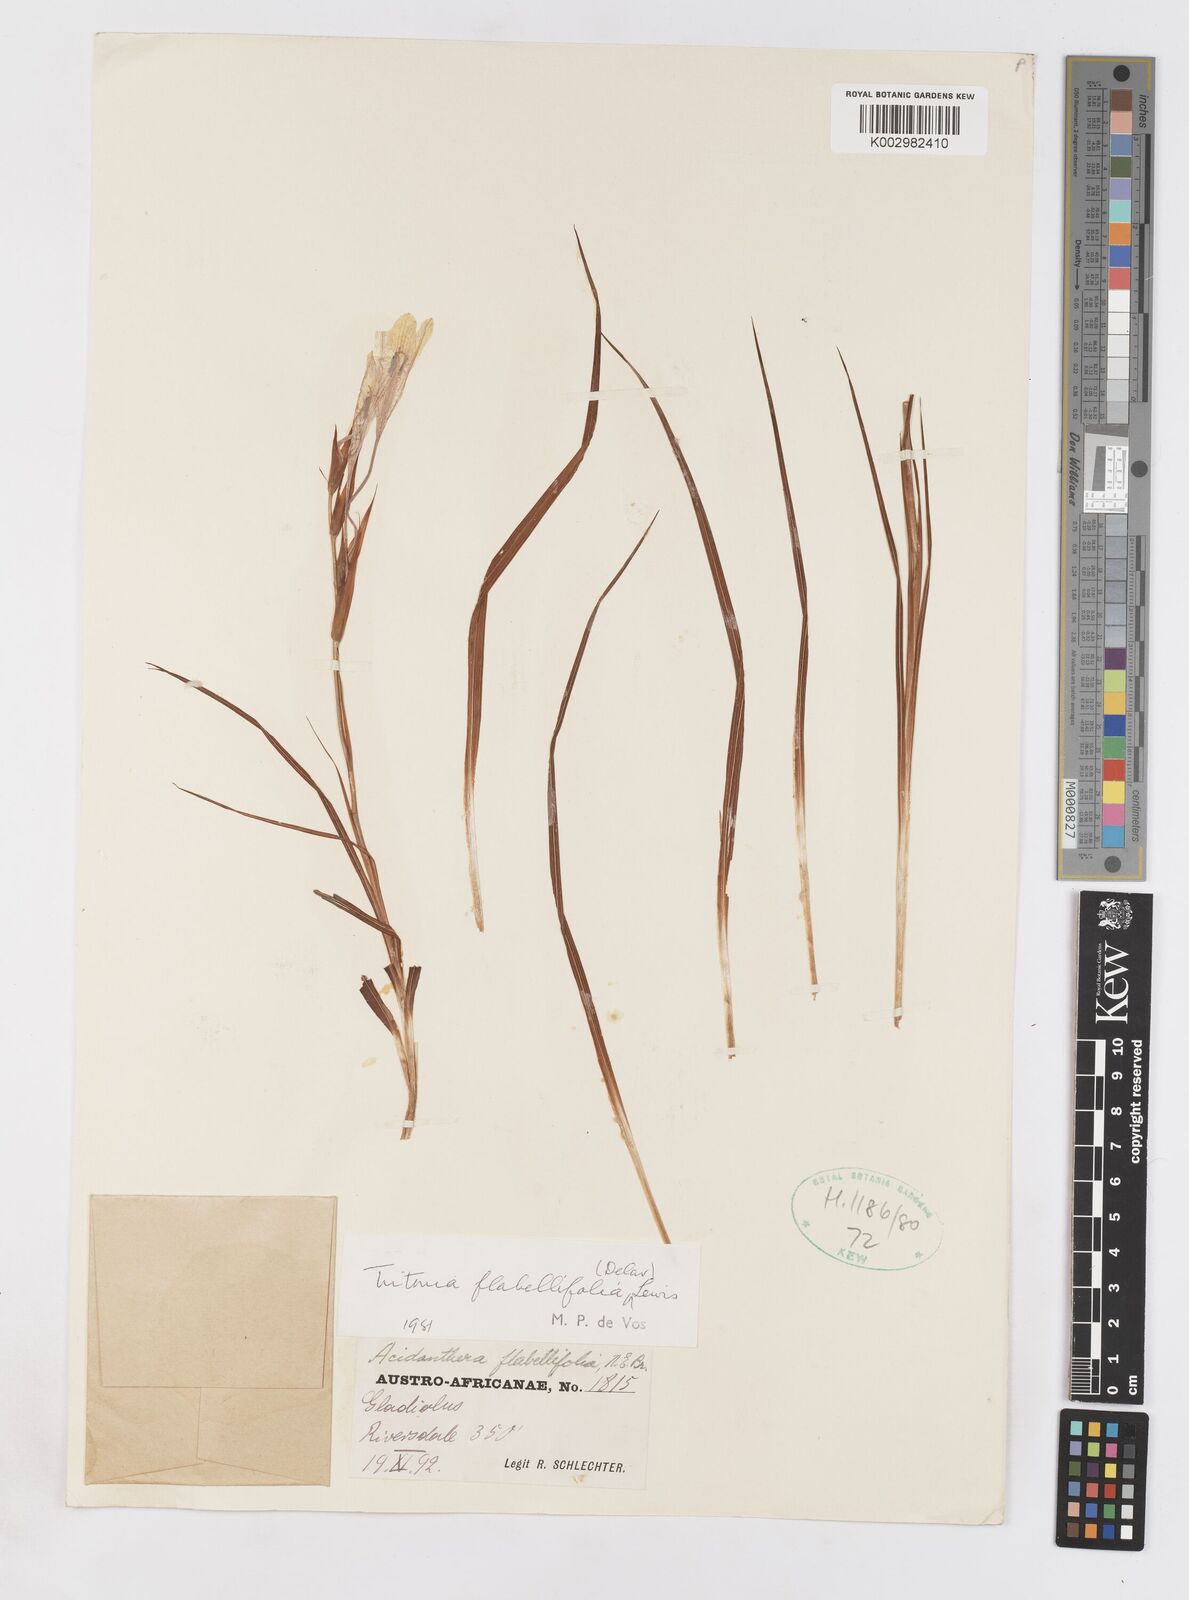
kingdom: Plantae
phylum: Tracheophyta
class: Liliopsida
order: Asparagales
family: Iridaceae
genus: Tritonia
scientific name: Tritonia flabellifolia
